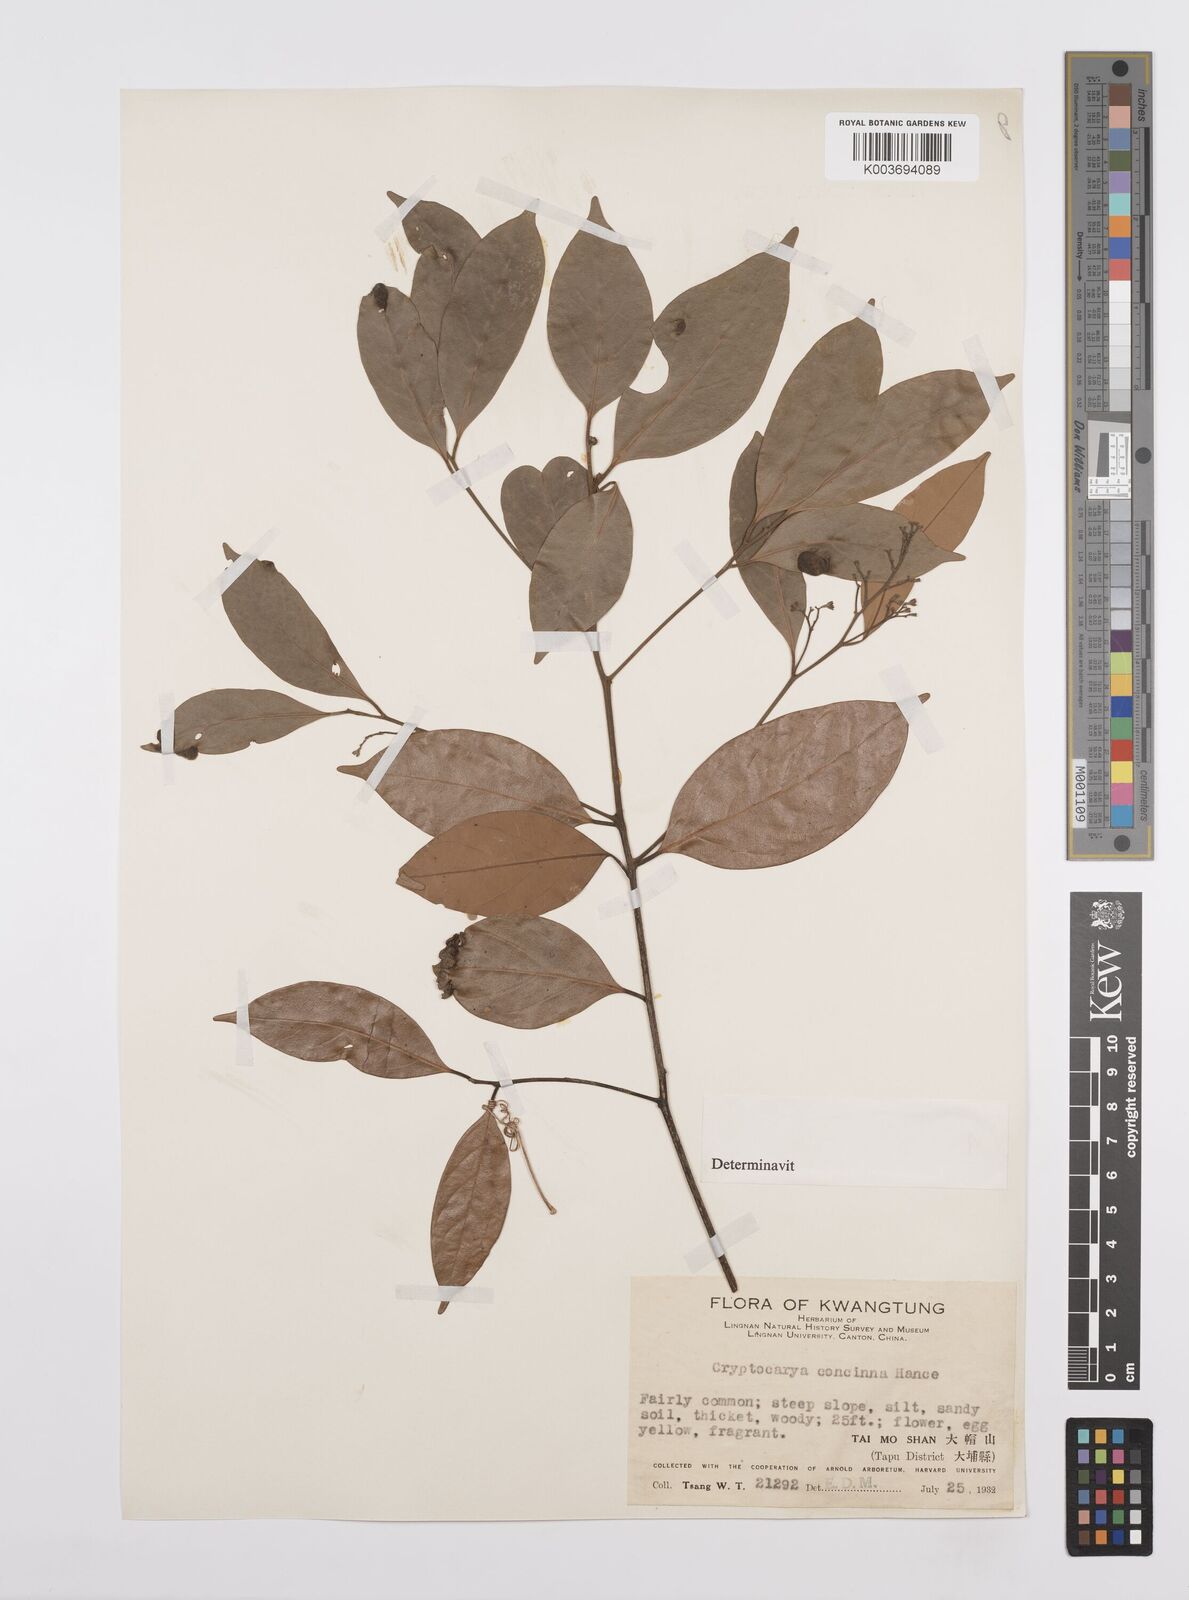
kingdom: Plantae
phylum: Tracheophyta
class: Magnoliopsida
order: Laurales
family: Lauraceae
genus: Cryptocarya
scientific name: Cryptocarya concinna
